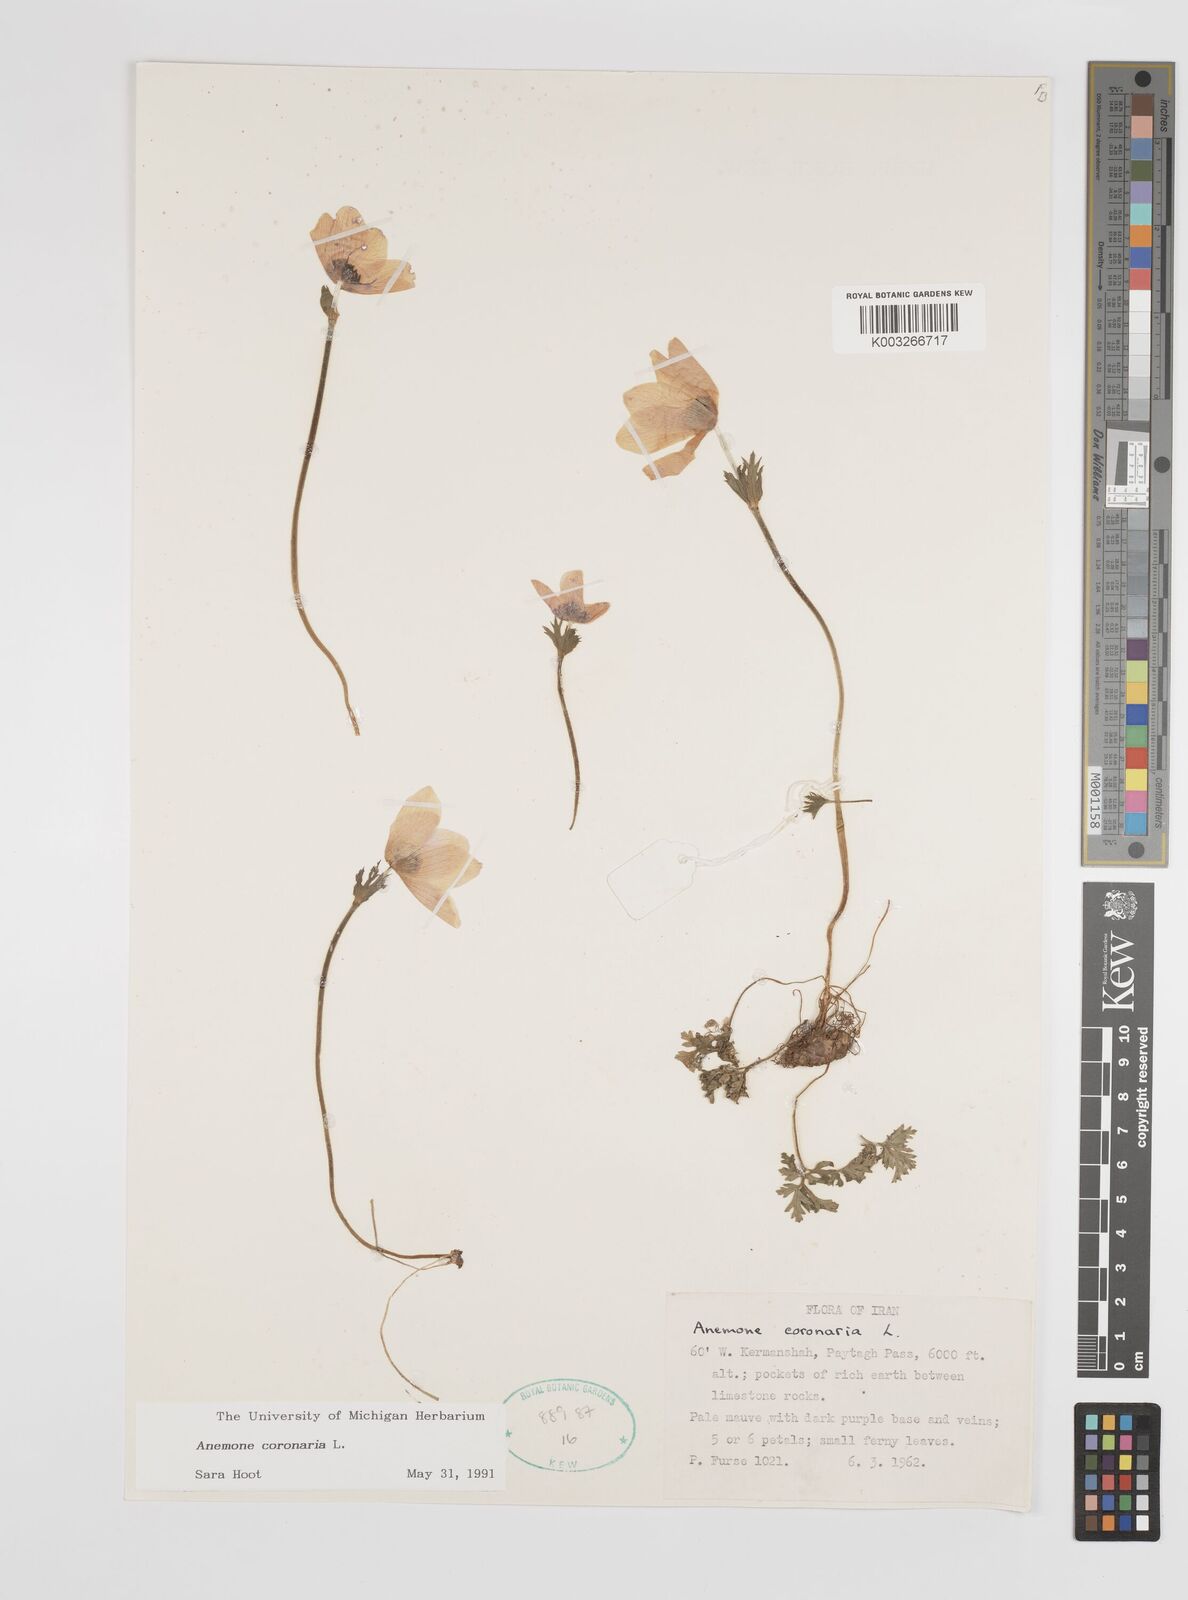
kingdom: Plantae
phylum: Tracheophyta
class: Magnoliopsida
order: Ranunculales
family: Ranunculaceae
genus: Anemone
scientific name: Anemone coronaria
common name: Poppy anemone
